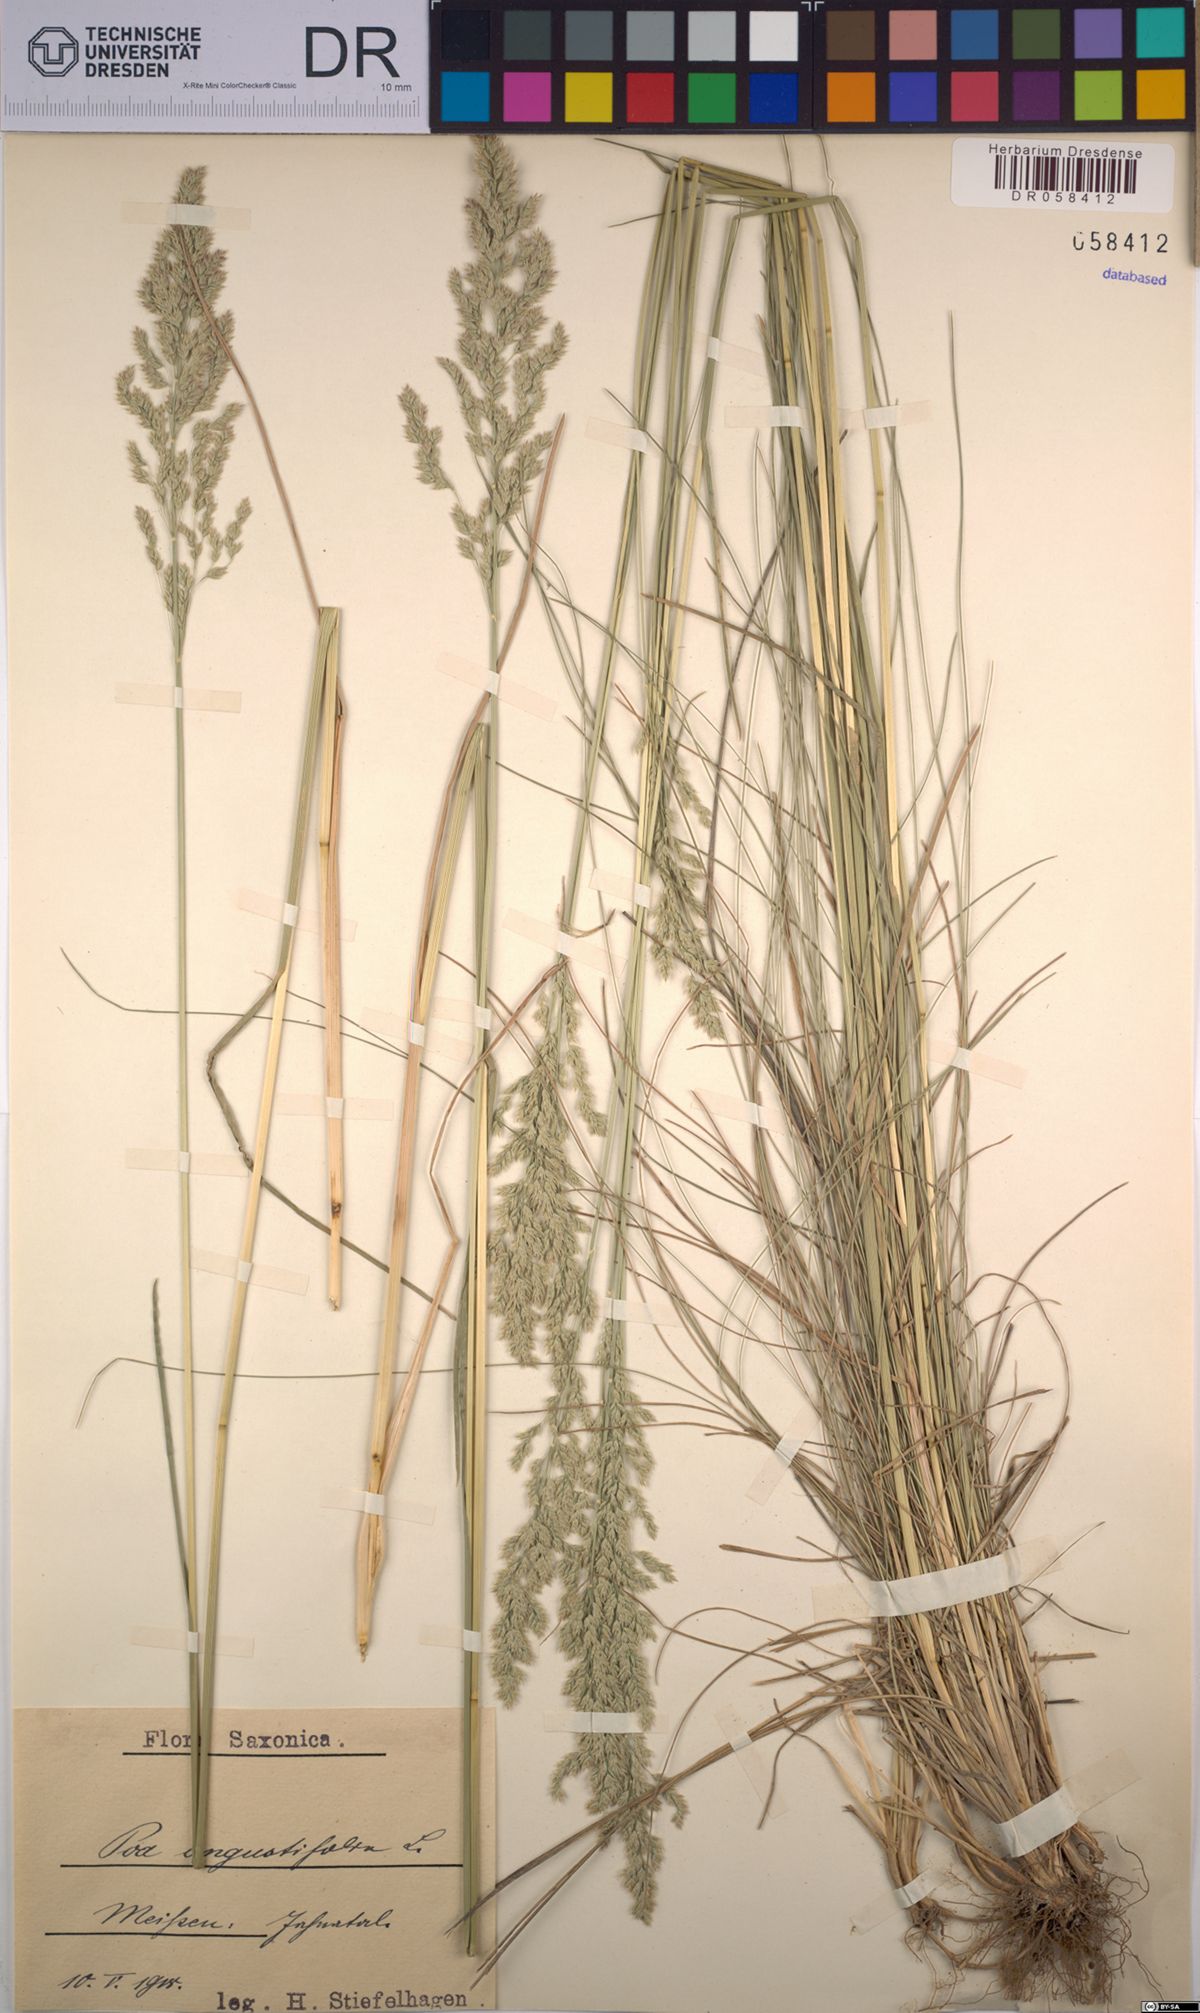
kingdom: Plantae
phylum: Tracheophyta
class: Liliopsida
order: Poales
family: Poaceae
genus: Poa
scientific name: Poa angustifolia
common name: Narrow-leaved meadow-grass
